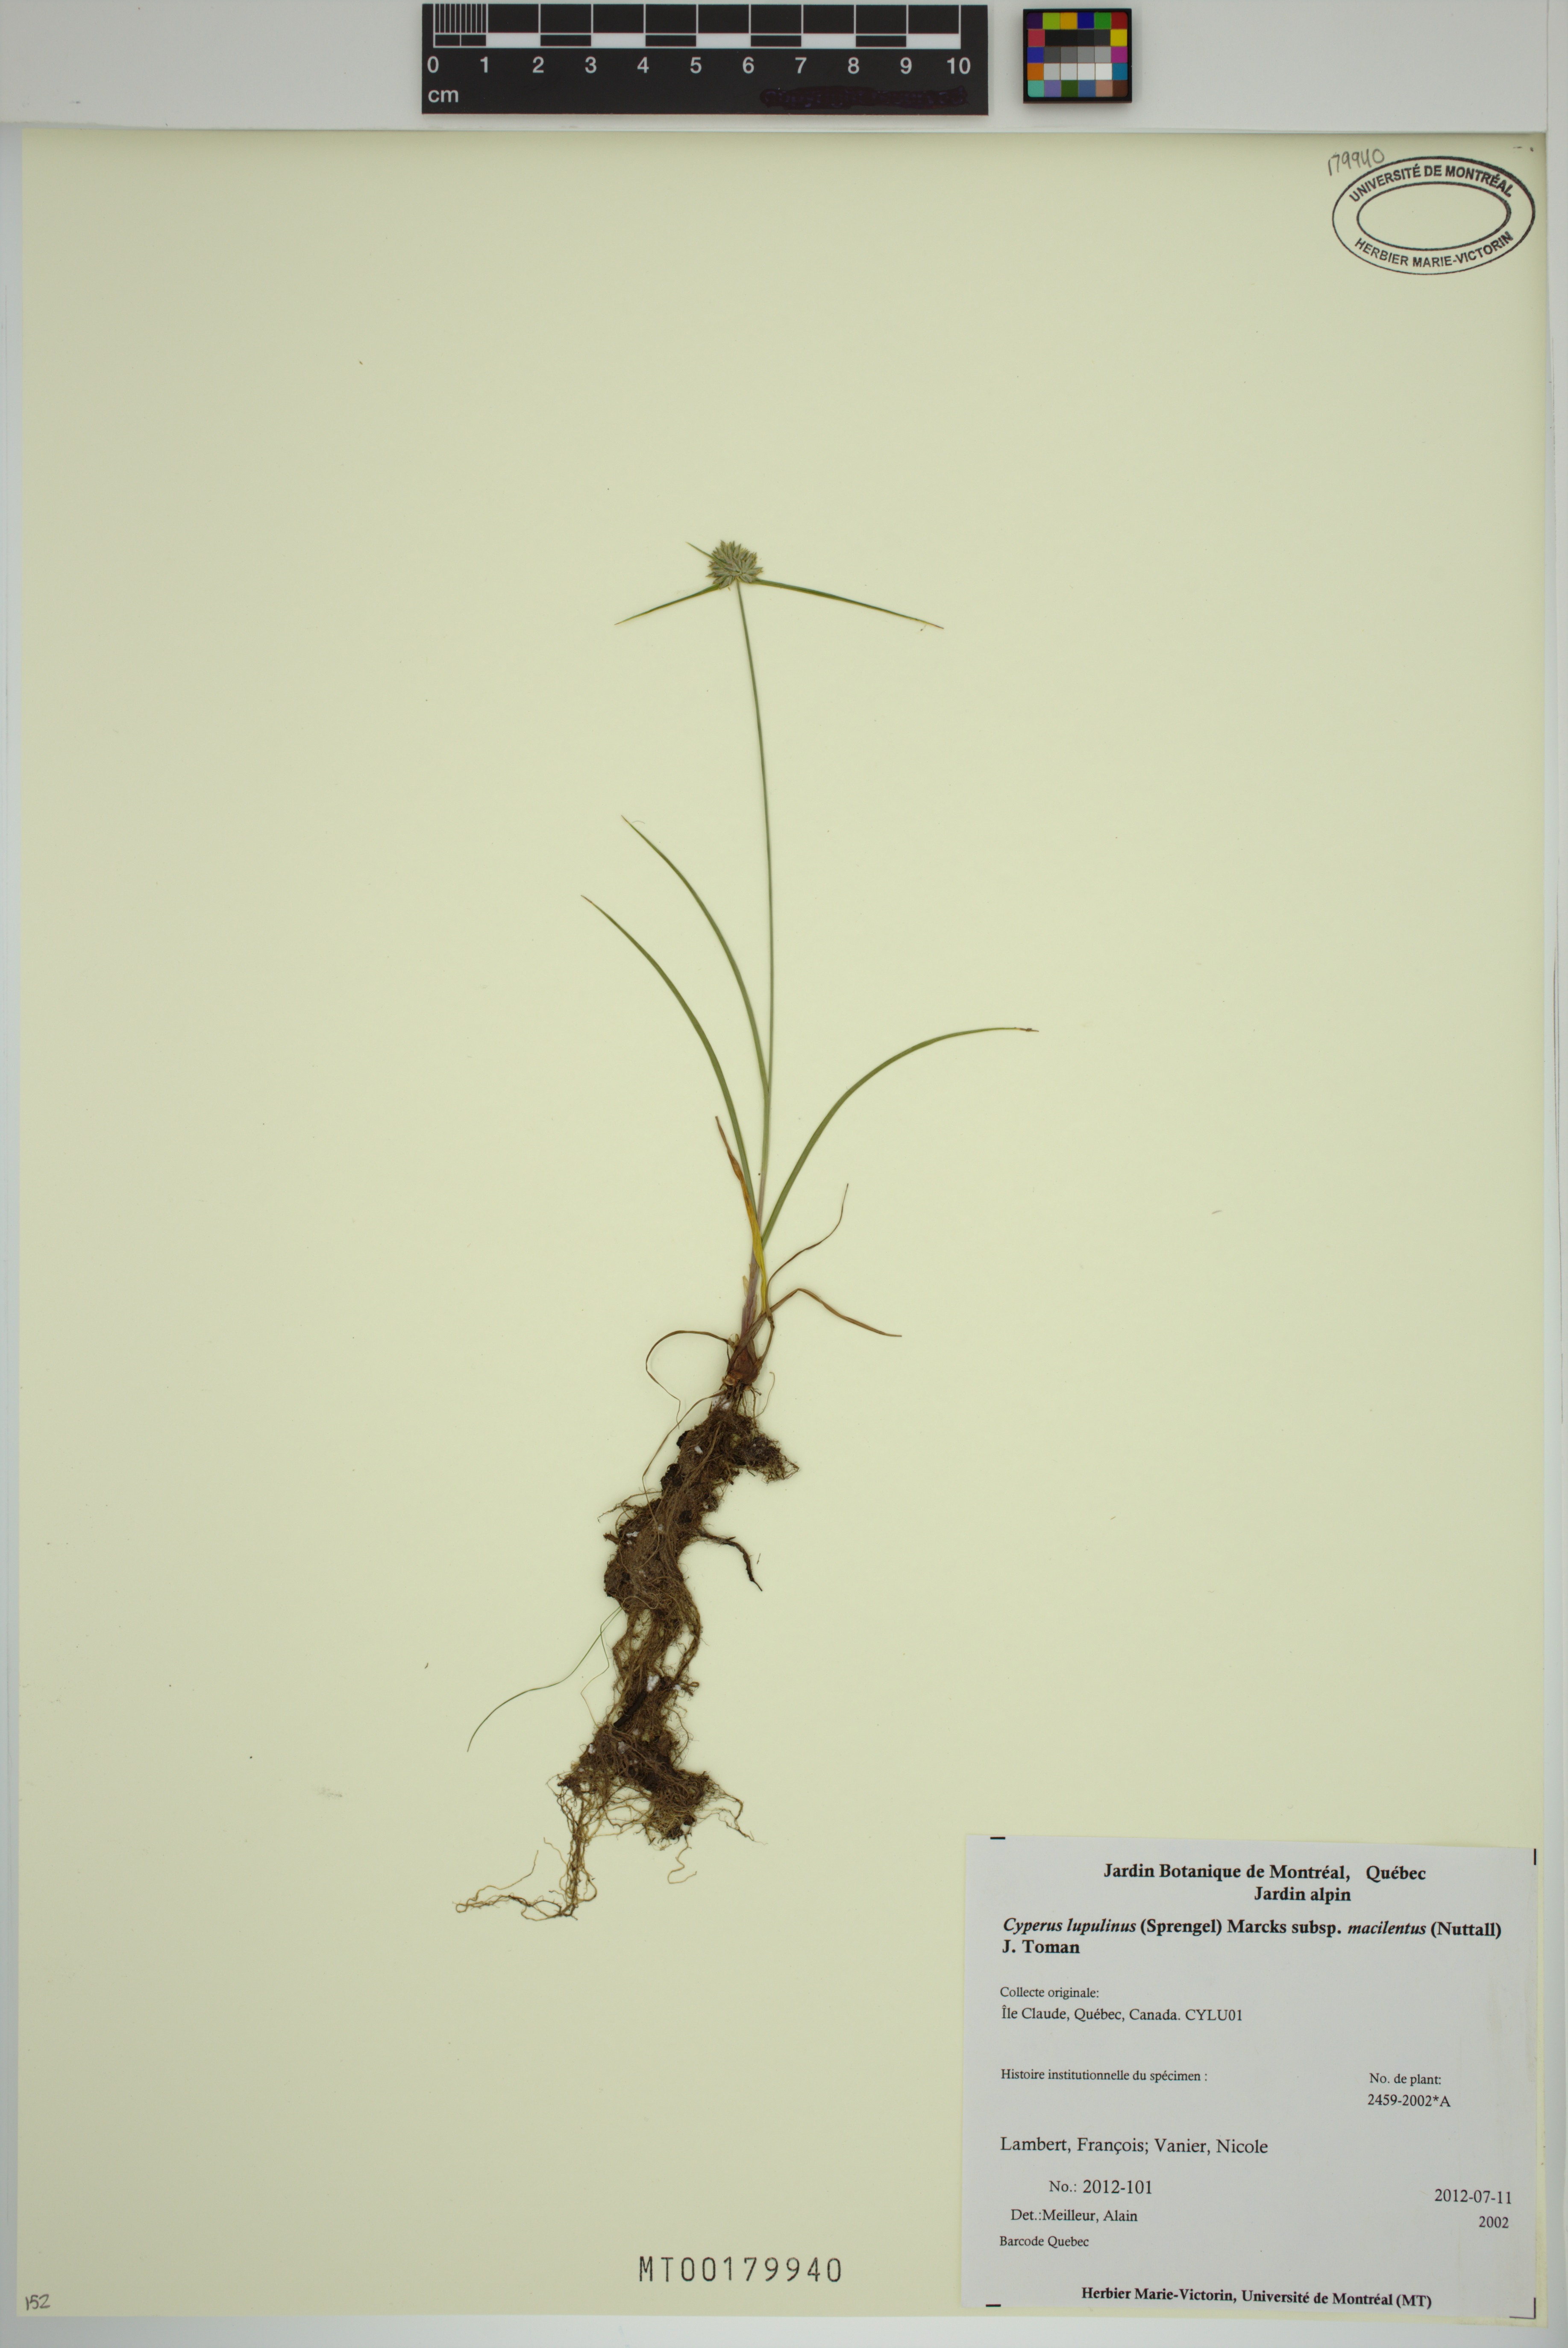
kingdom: Plantae
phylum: Tracheophyta
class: Liliopsida
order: Poales
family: Cyperaceae
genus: Cyperus
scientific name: Cyperus lupulinus
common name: Great plains flatsedge
